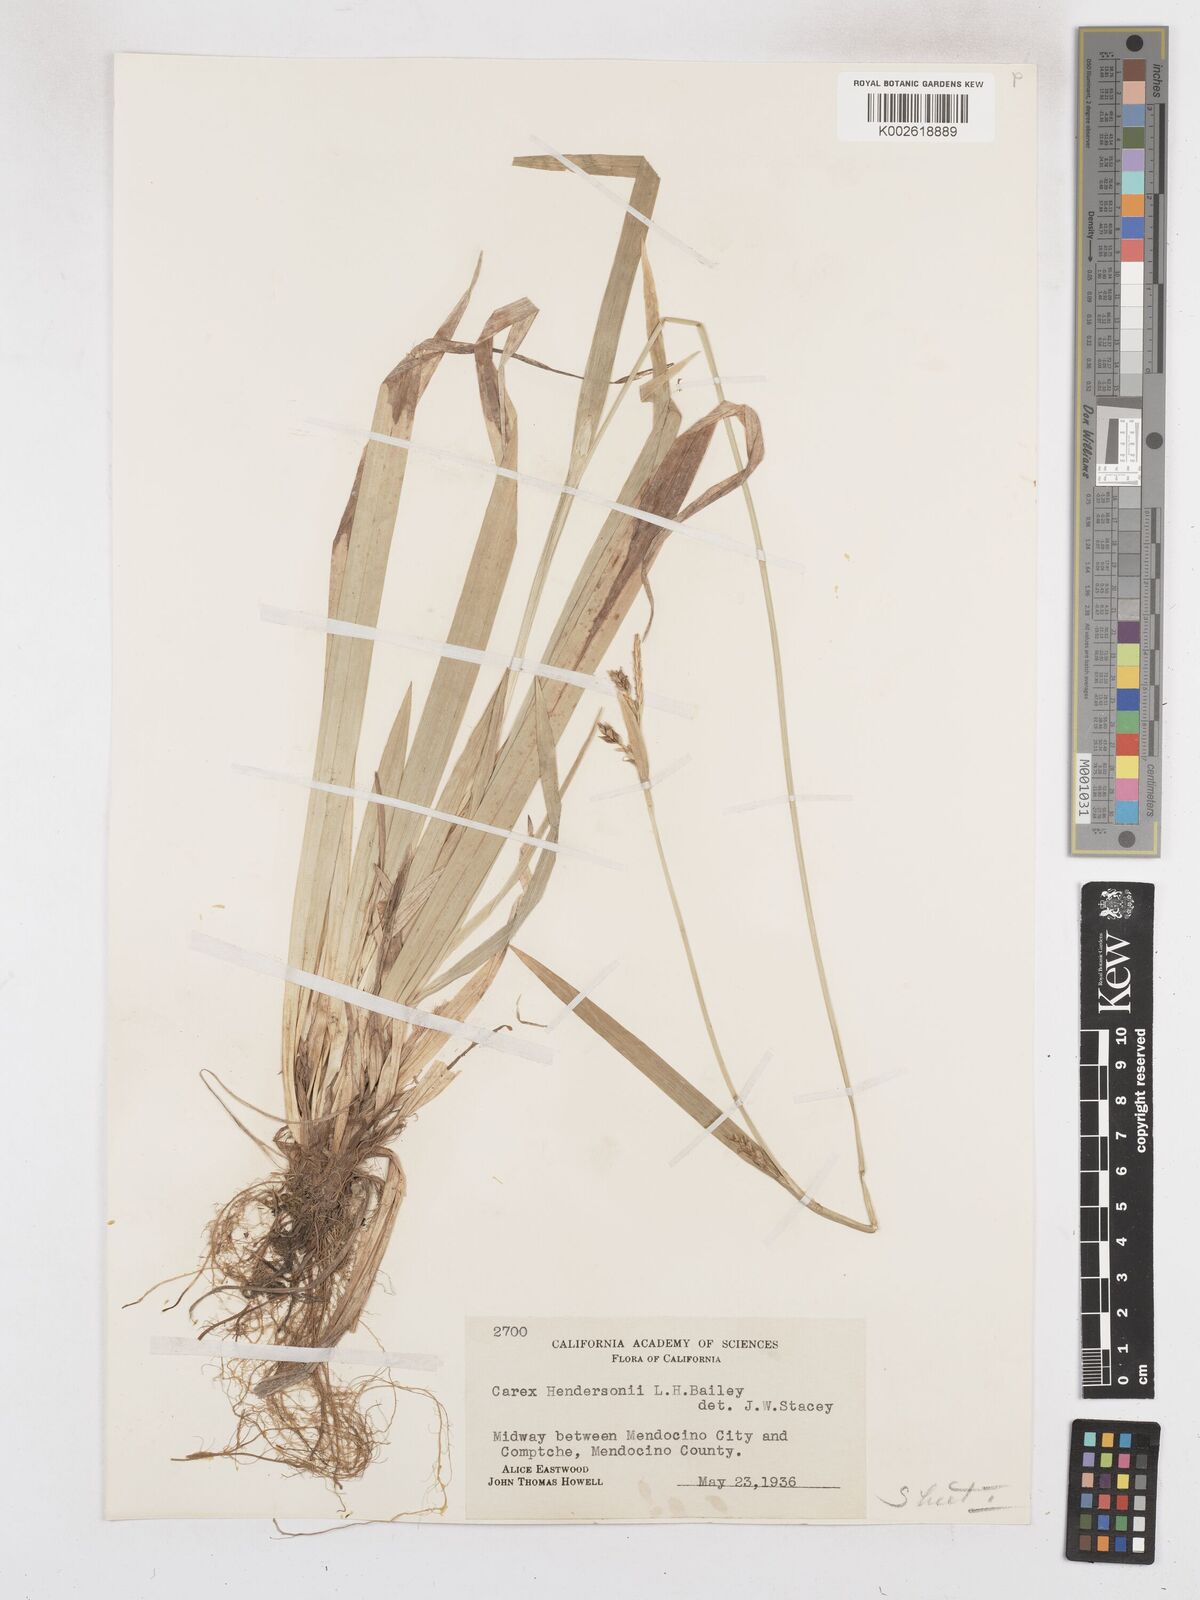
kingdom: Plantae
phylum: Tracheophyta
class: Liliopsida
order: Poales
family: Cyperaceae
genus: Carex
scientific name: Carex hendersonii
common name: Henderson's sedge
